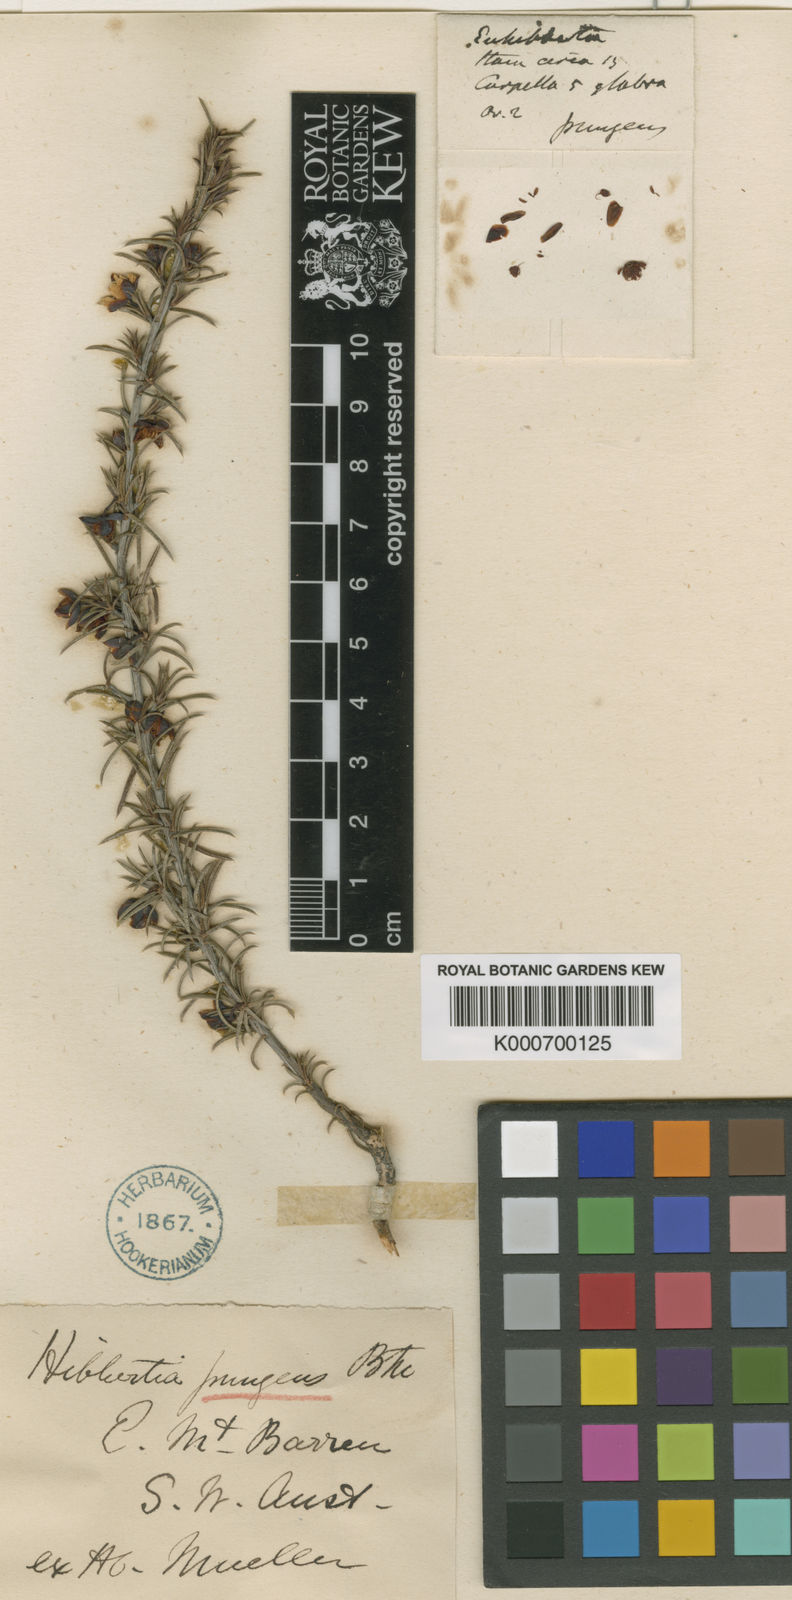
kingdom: Plantae
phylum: Tracheophyta
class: Magnoliopsida
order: Dilleniales
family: Dilleniaceae
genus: Hibbertia
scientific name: Hibbertia pungens
